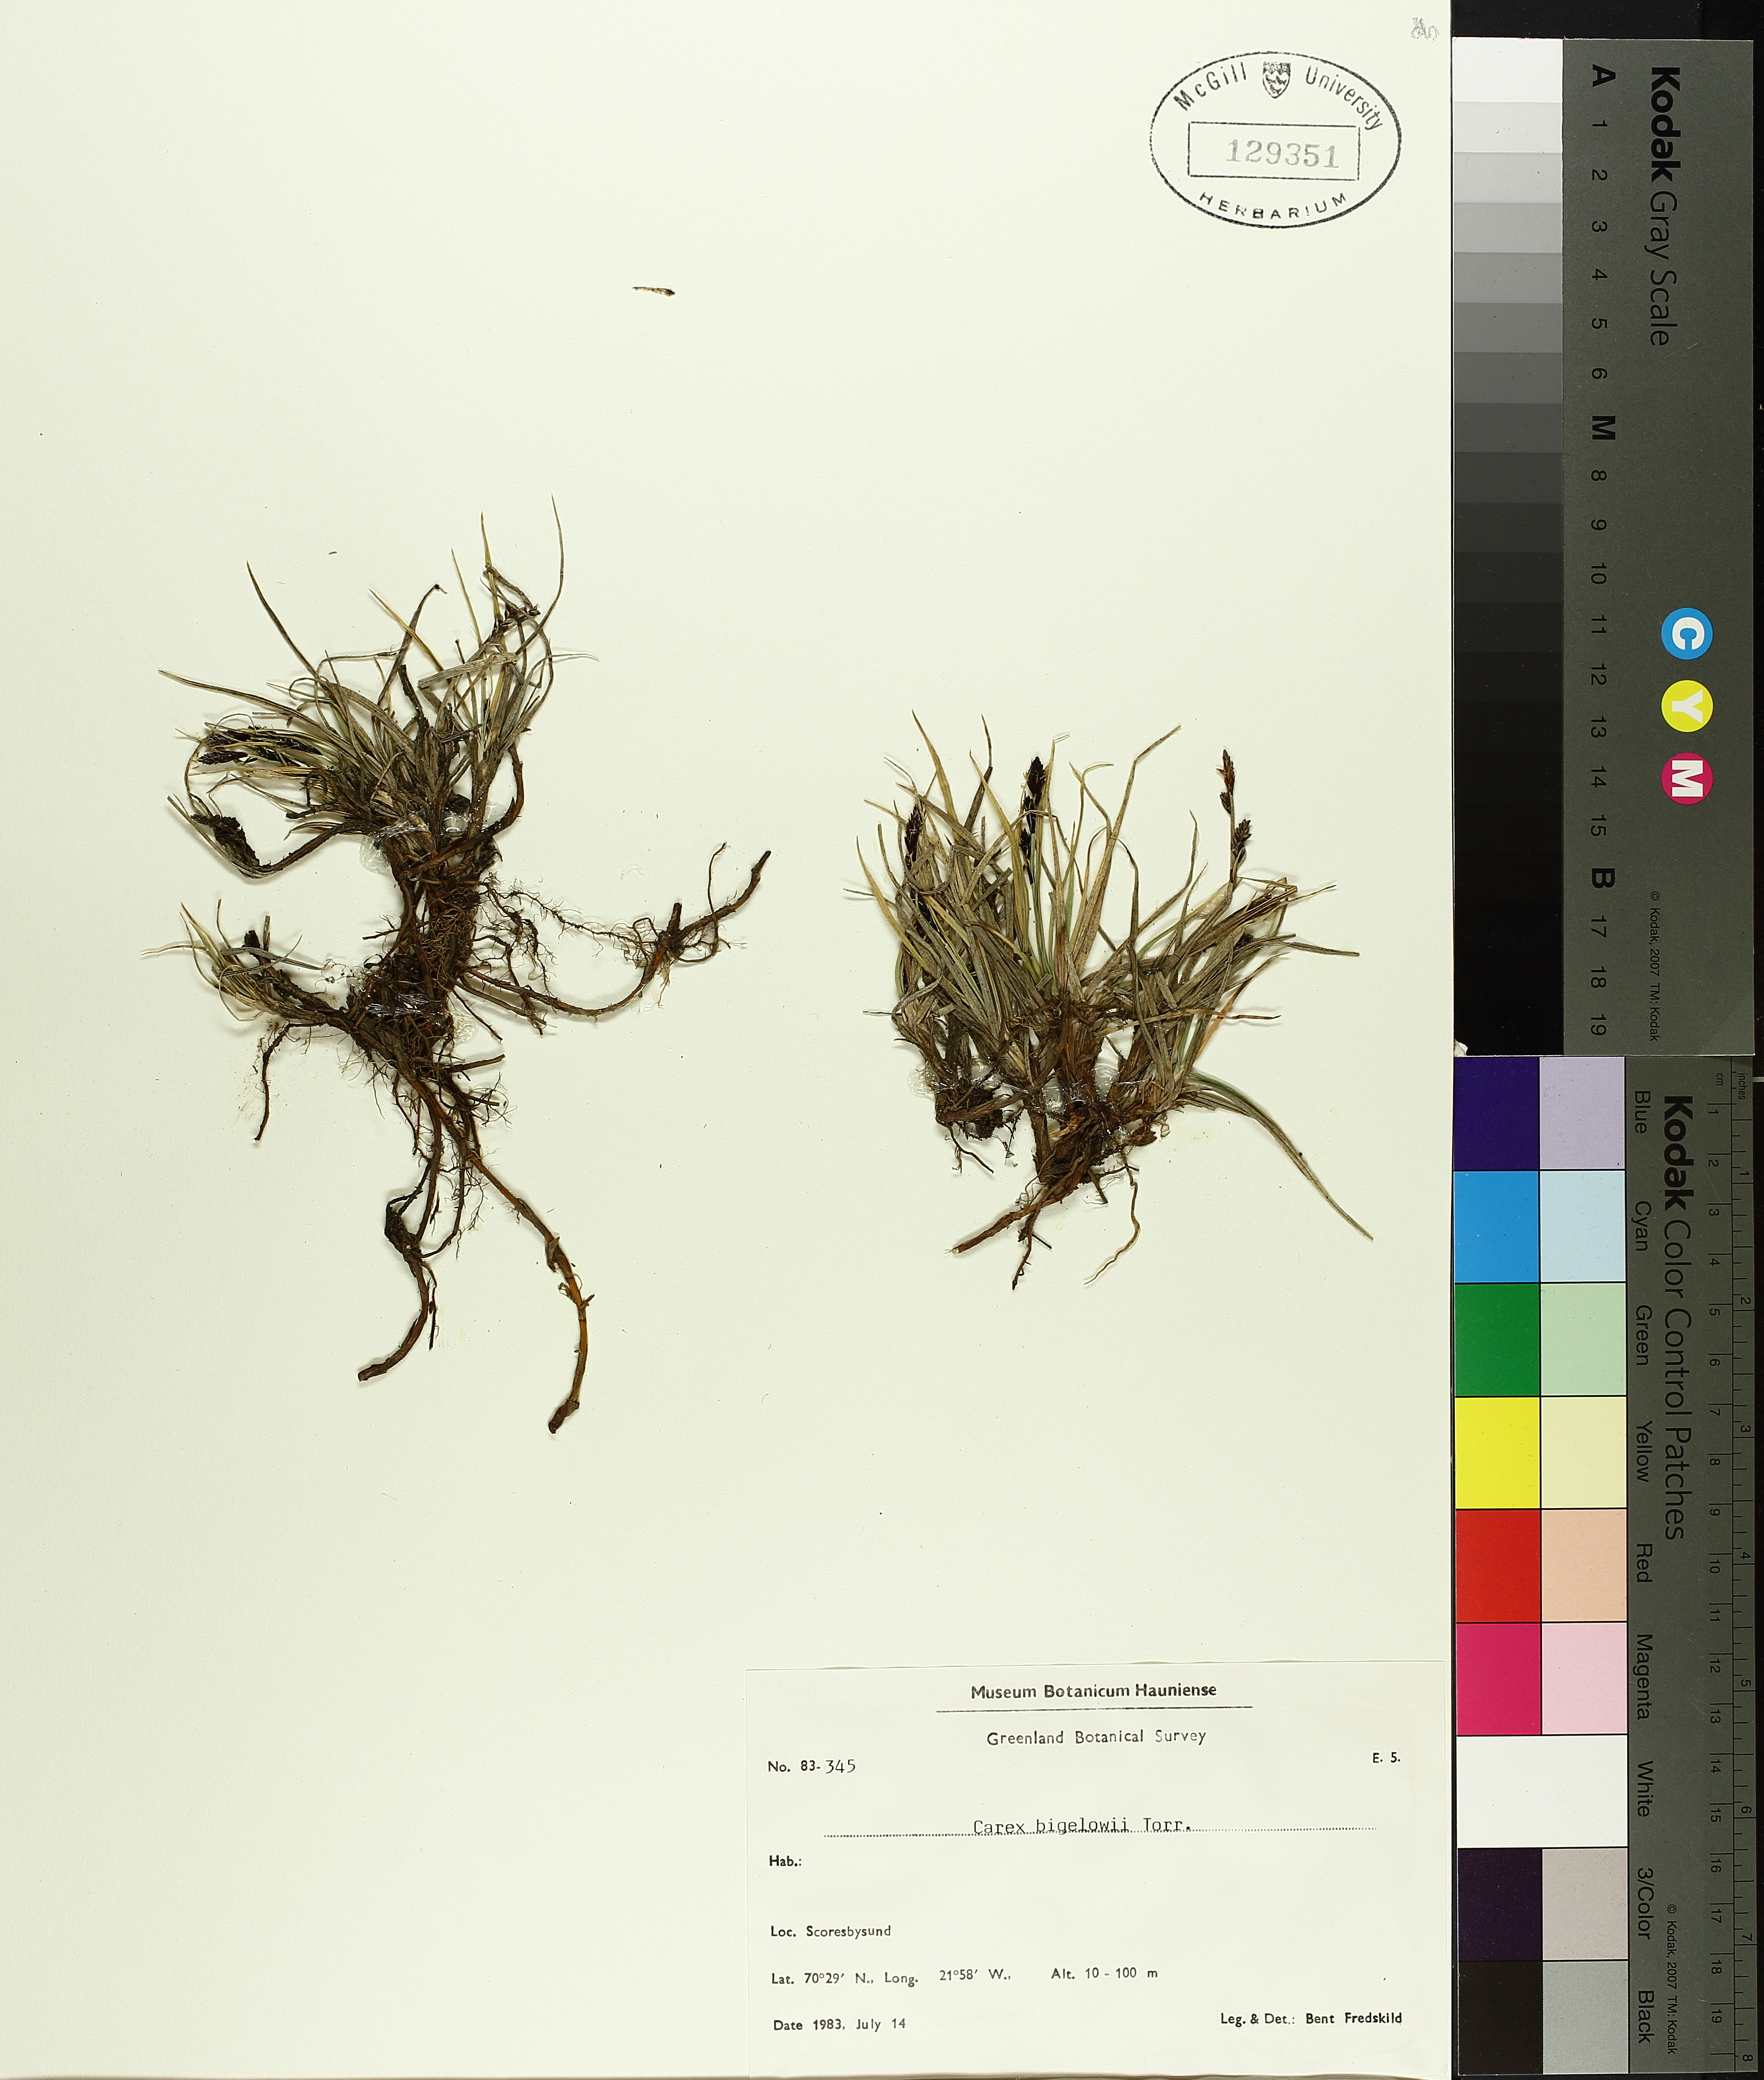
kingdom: Plantae
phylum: Tracheophyta
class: Liliopsida
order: Poales
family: Cyperaceae
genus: Carex
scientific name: Carex bigelowii
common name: Stiff sedge
